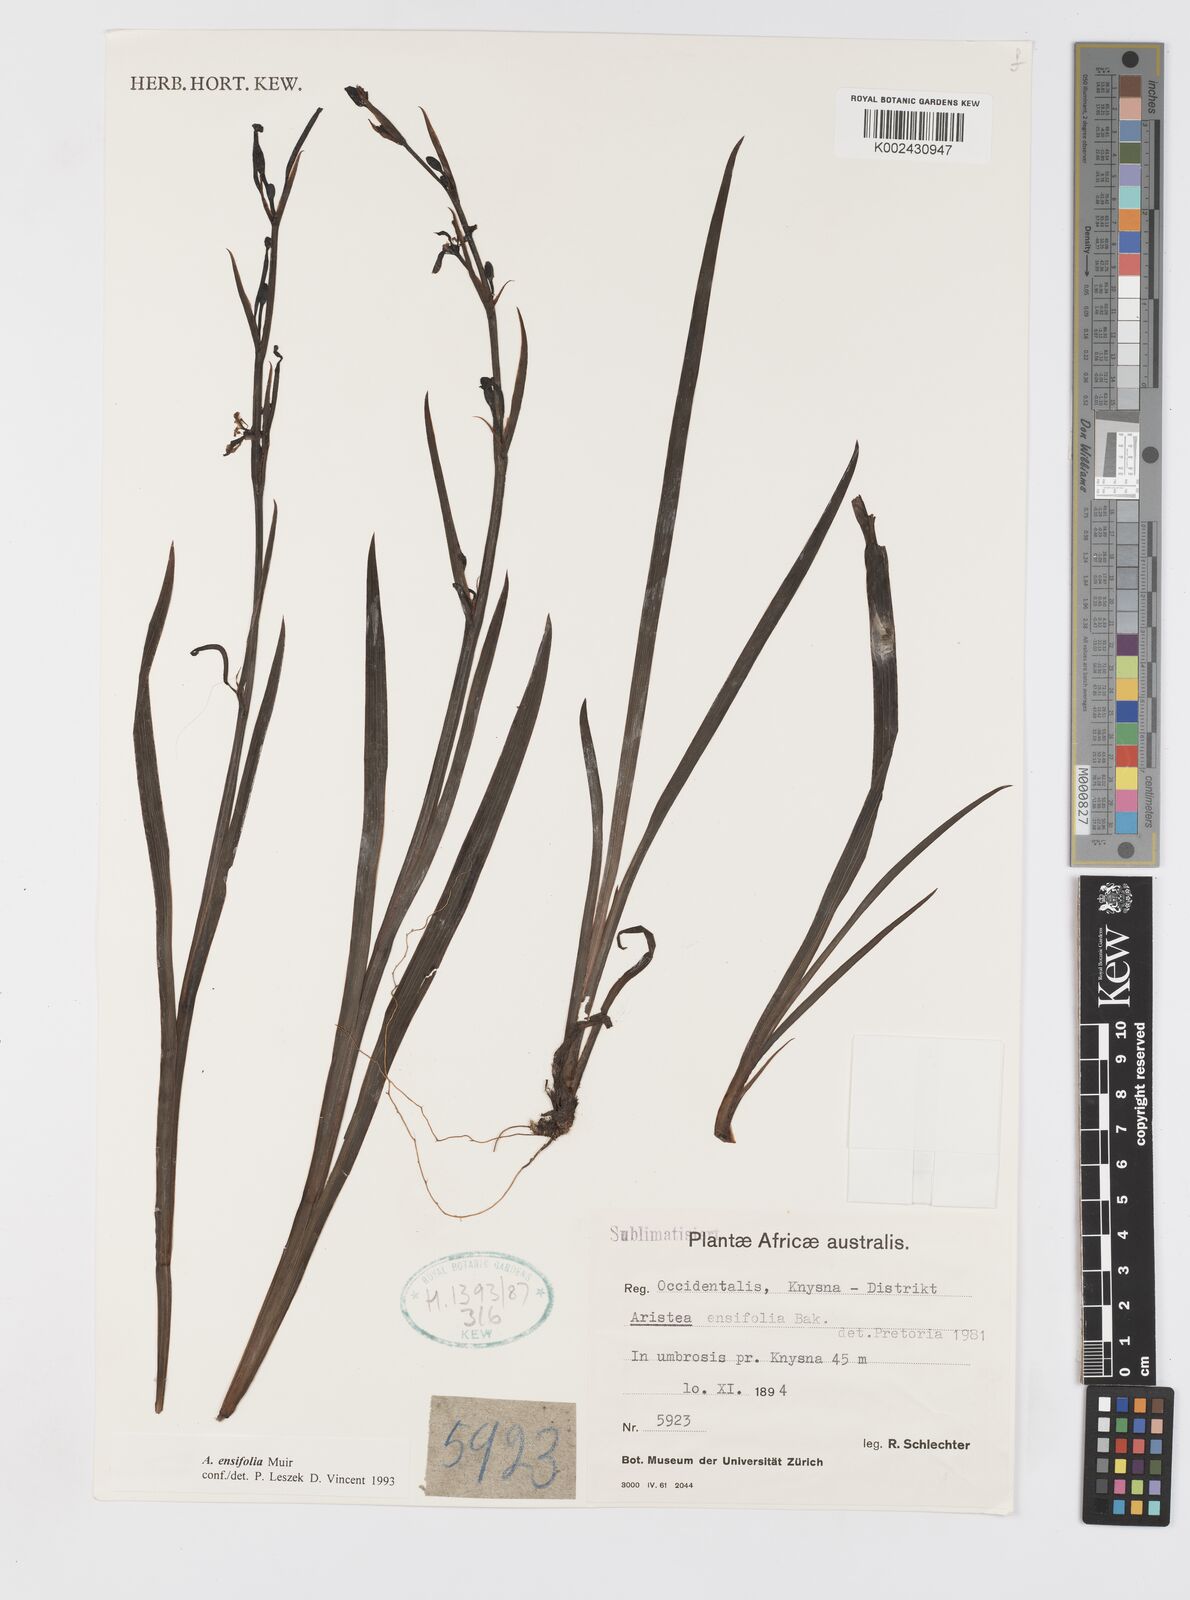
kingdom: Plantae
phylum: Tracheophyta
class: Liliopsida
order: Asparagales
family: Iridaceae
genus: Aristea
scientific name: Aristea ensifolia
